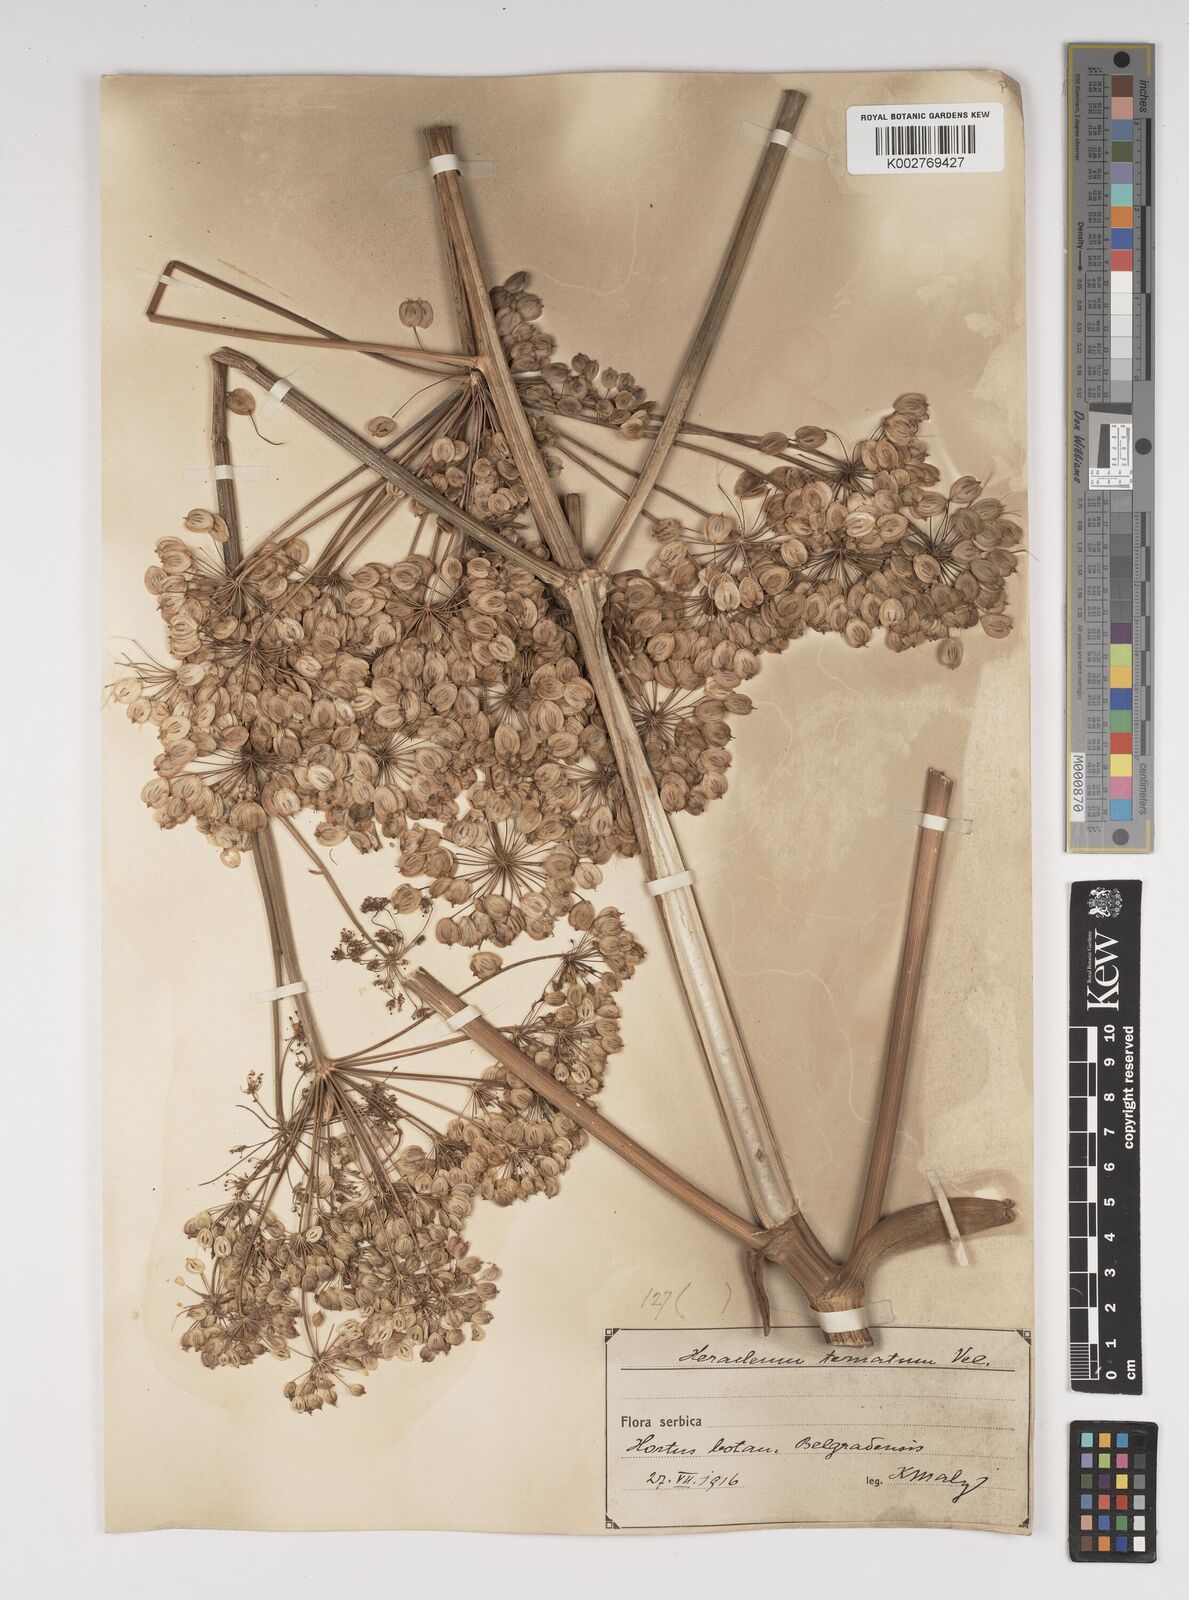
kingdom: Plantae
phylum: Tracheophyta
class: Magnoliopsida
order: Apiales
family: Apiaceae
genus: Heracleum
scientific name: Heracleum sphondylium
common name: Hogweed
